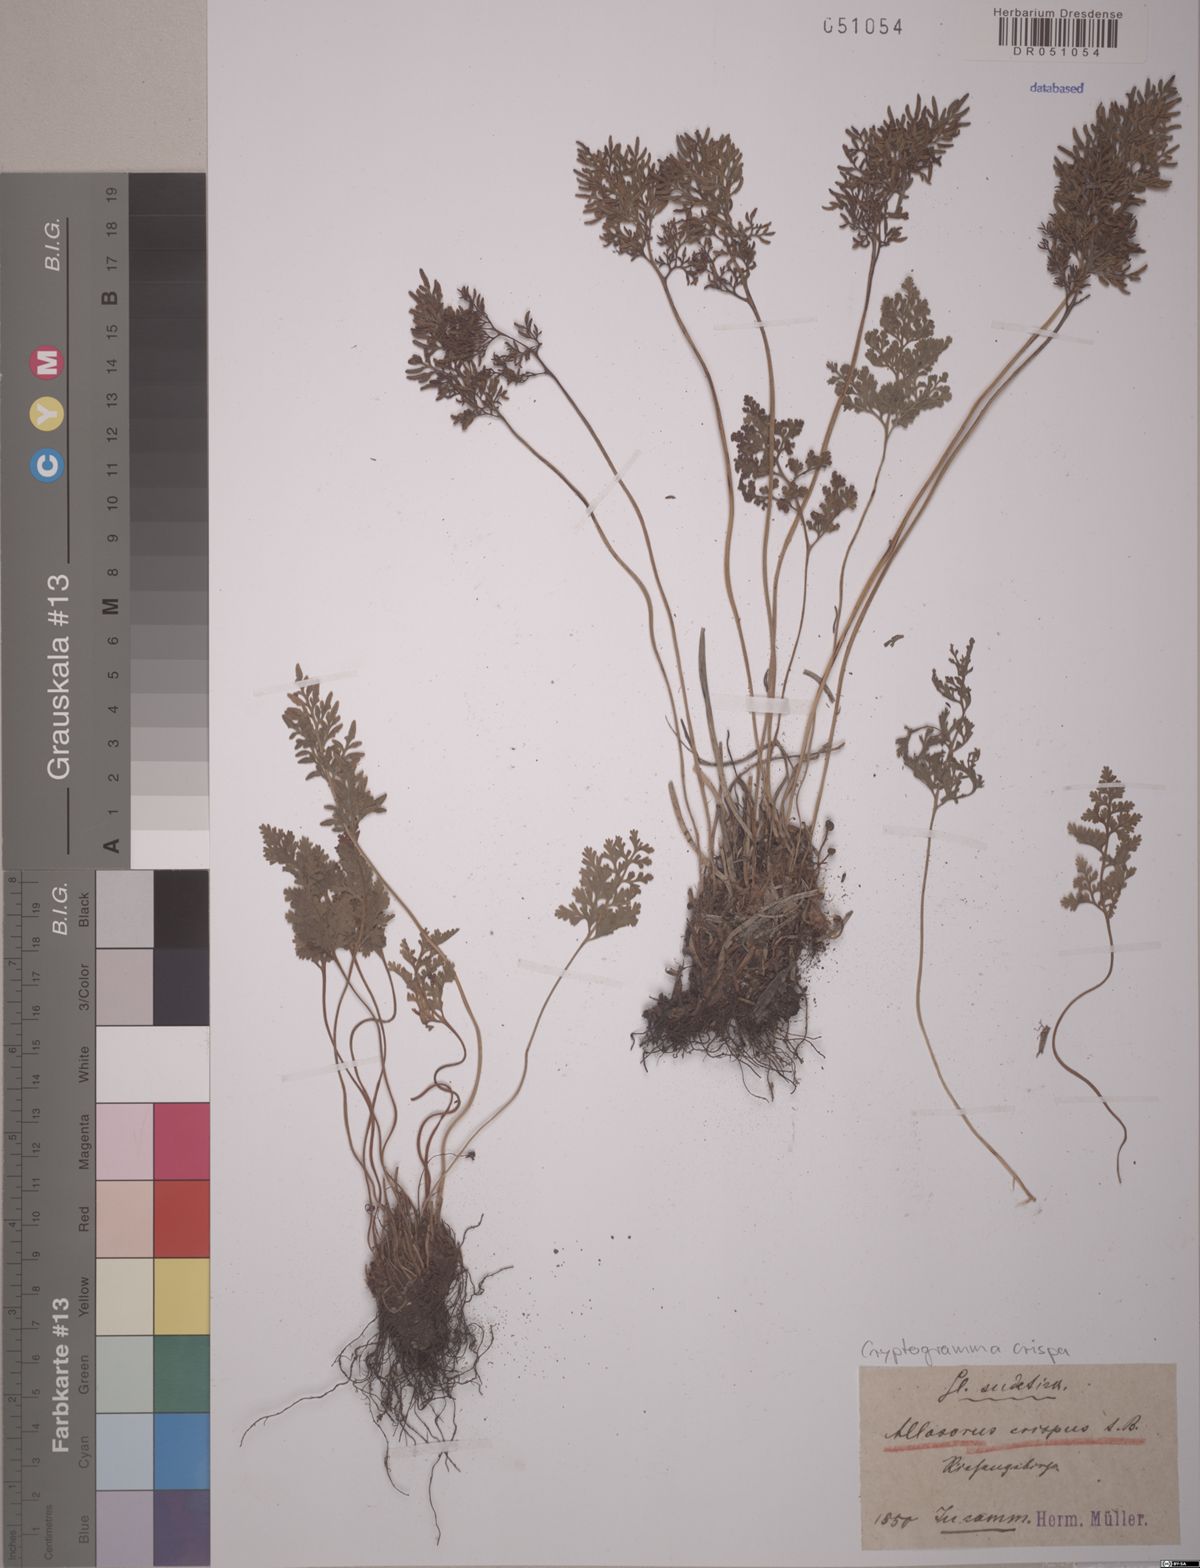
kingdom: Plantae
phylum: Tracheophyta
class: Polypodiopsida
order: Polypodiales
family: Pteridaceae
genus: Cryptogramma
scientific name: Cryptogramma crispa
